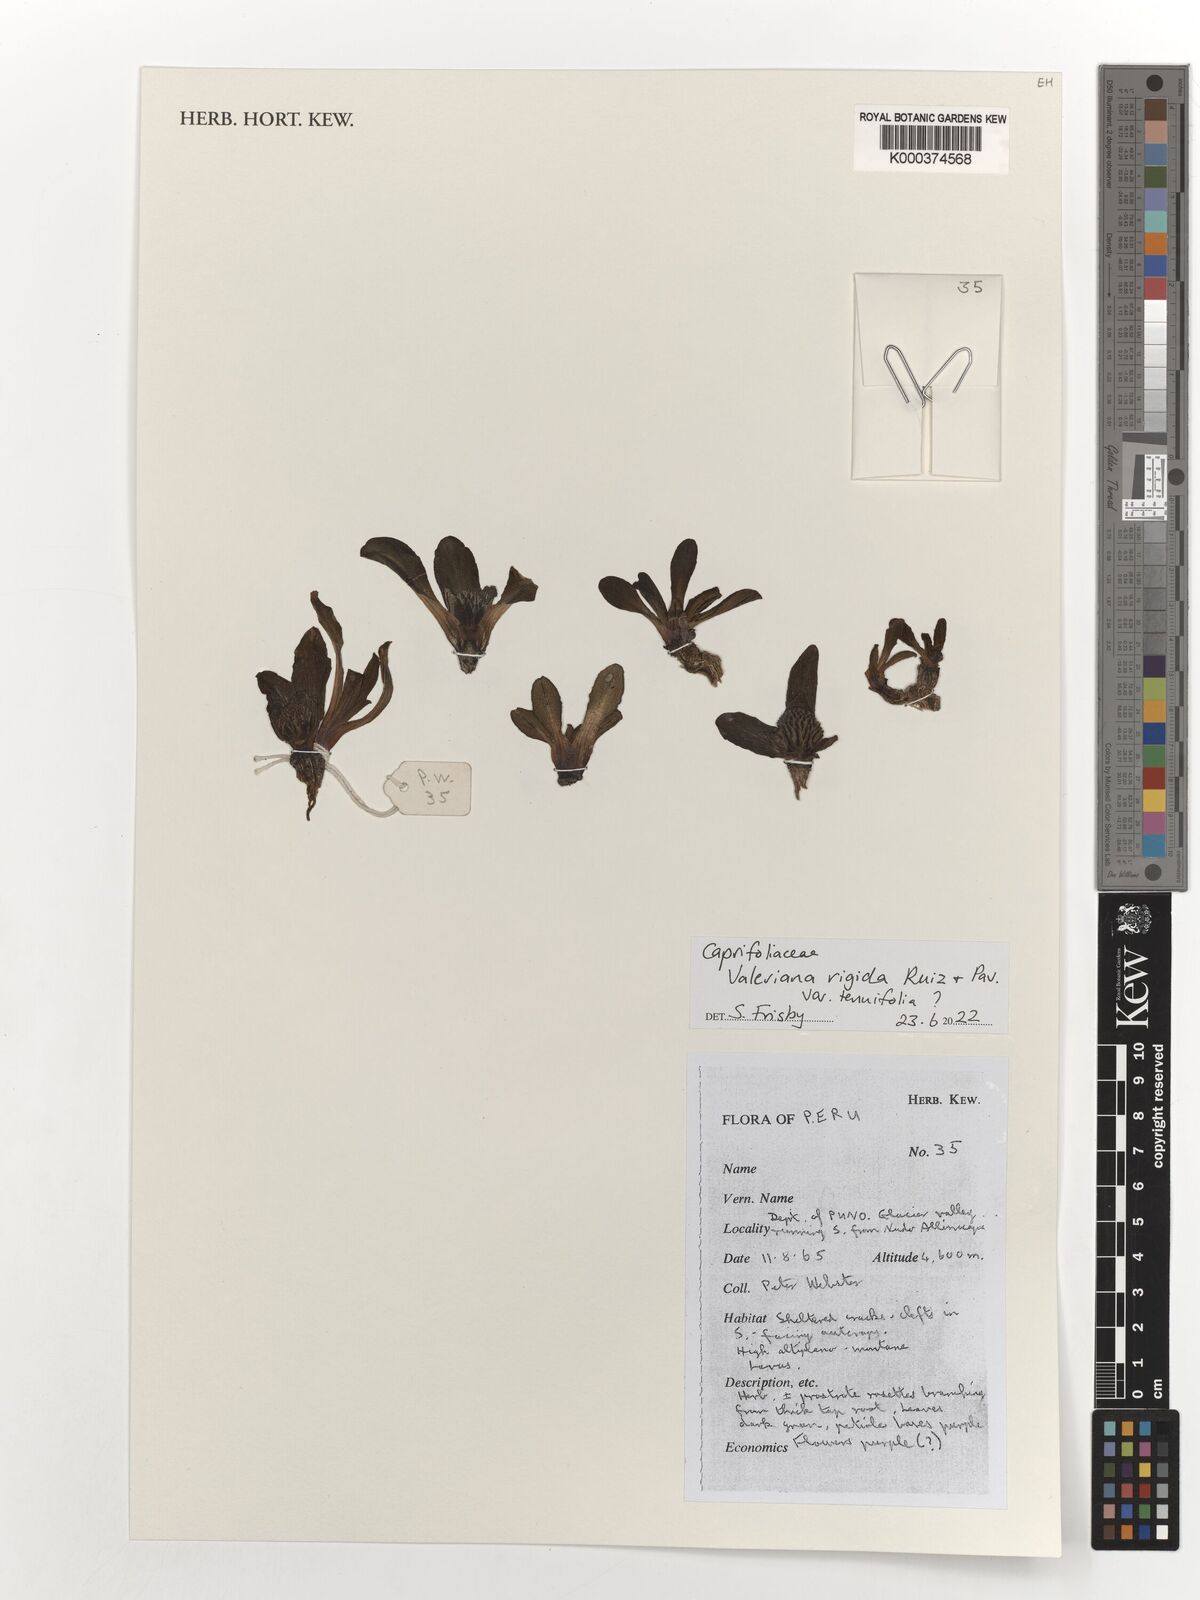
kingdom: Plantae
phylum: Tracheophyta
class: Magnoliopsida
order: Dipsacales
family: Caprifoliaceae
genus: Valeriana
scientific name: Valeriana rigida
